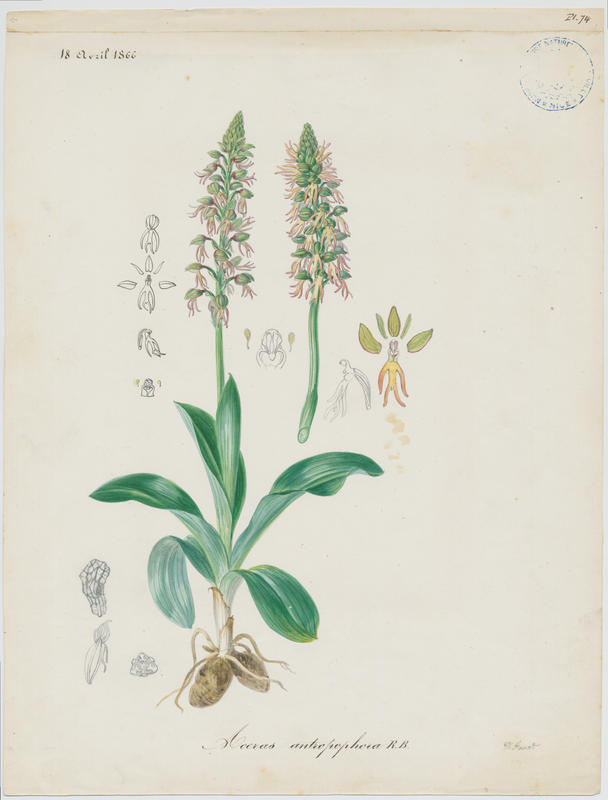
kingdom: Plantae
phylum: Tracheophyta
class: Liliopsida
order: Asparagales
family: Orchidaceae
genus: Orchis
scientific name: Orchis anthropophora
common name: Man orchid
